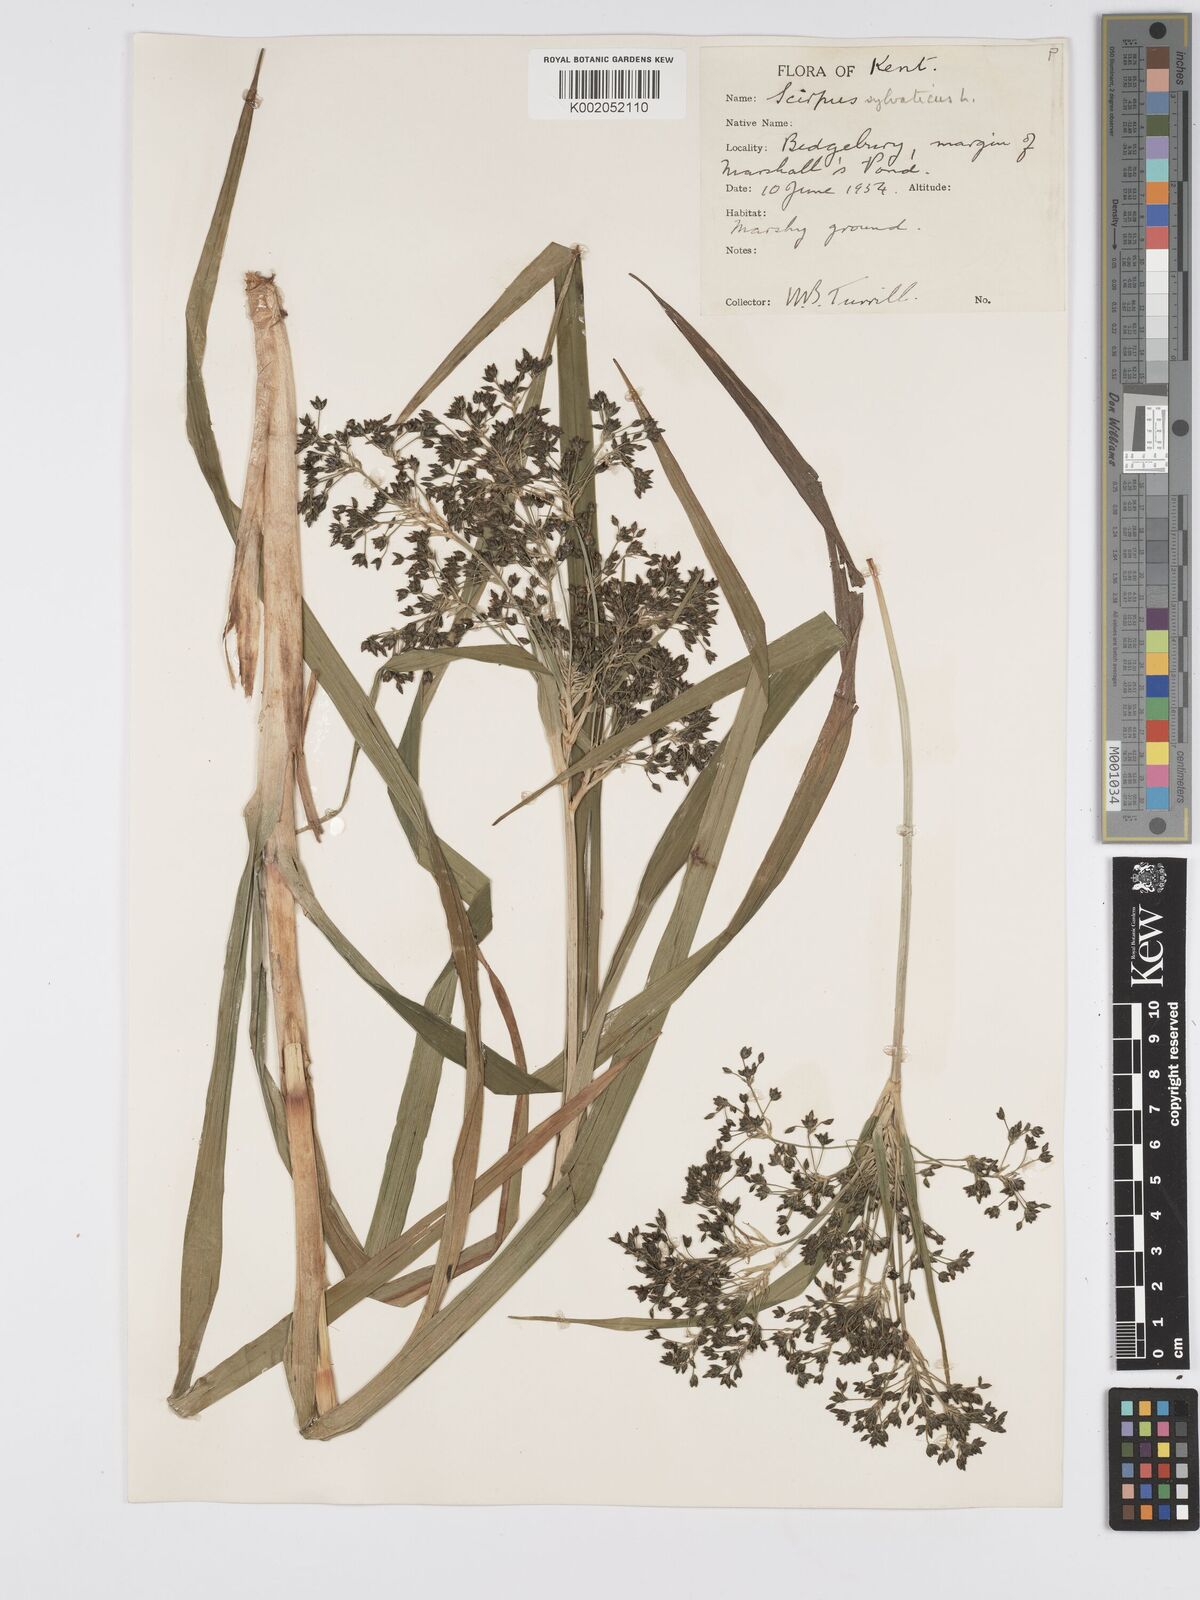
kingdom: Plantae
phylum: Tracheophyta
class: Liliopsida
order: Poales
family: Cyperaceae
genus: Scirpus
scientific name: Scirpus sylvaticus
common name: Wood club-rush
